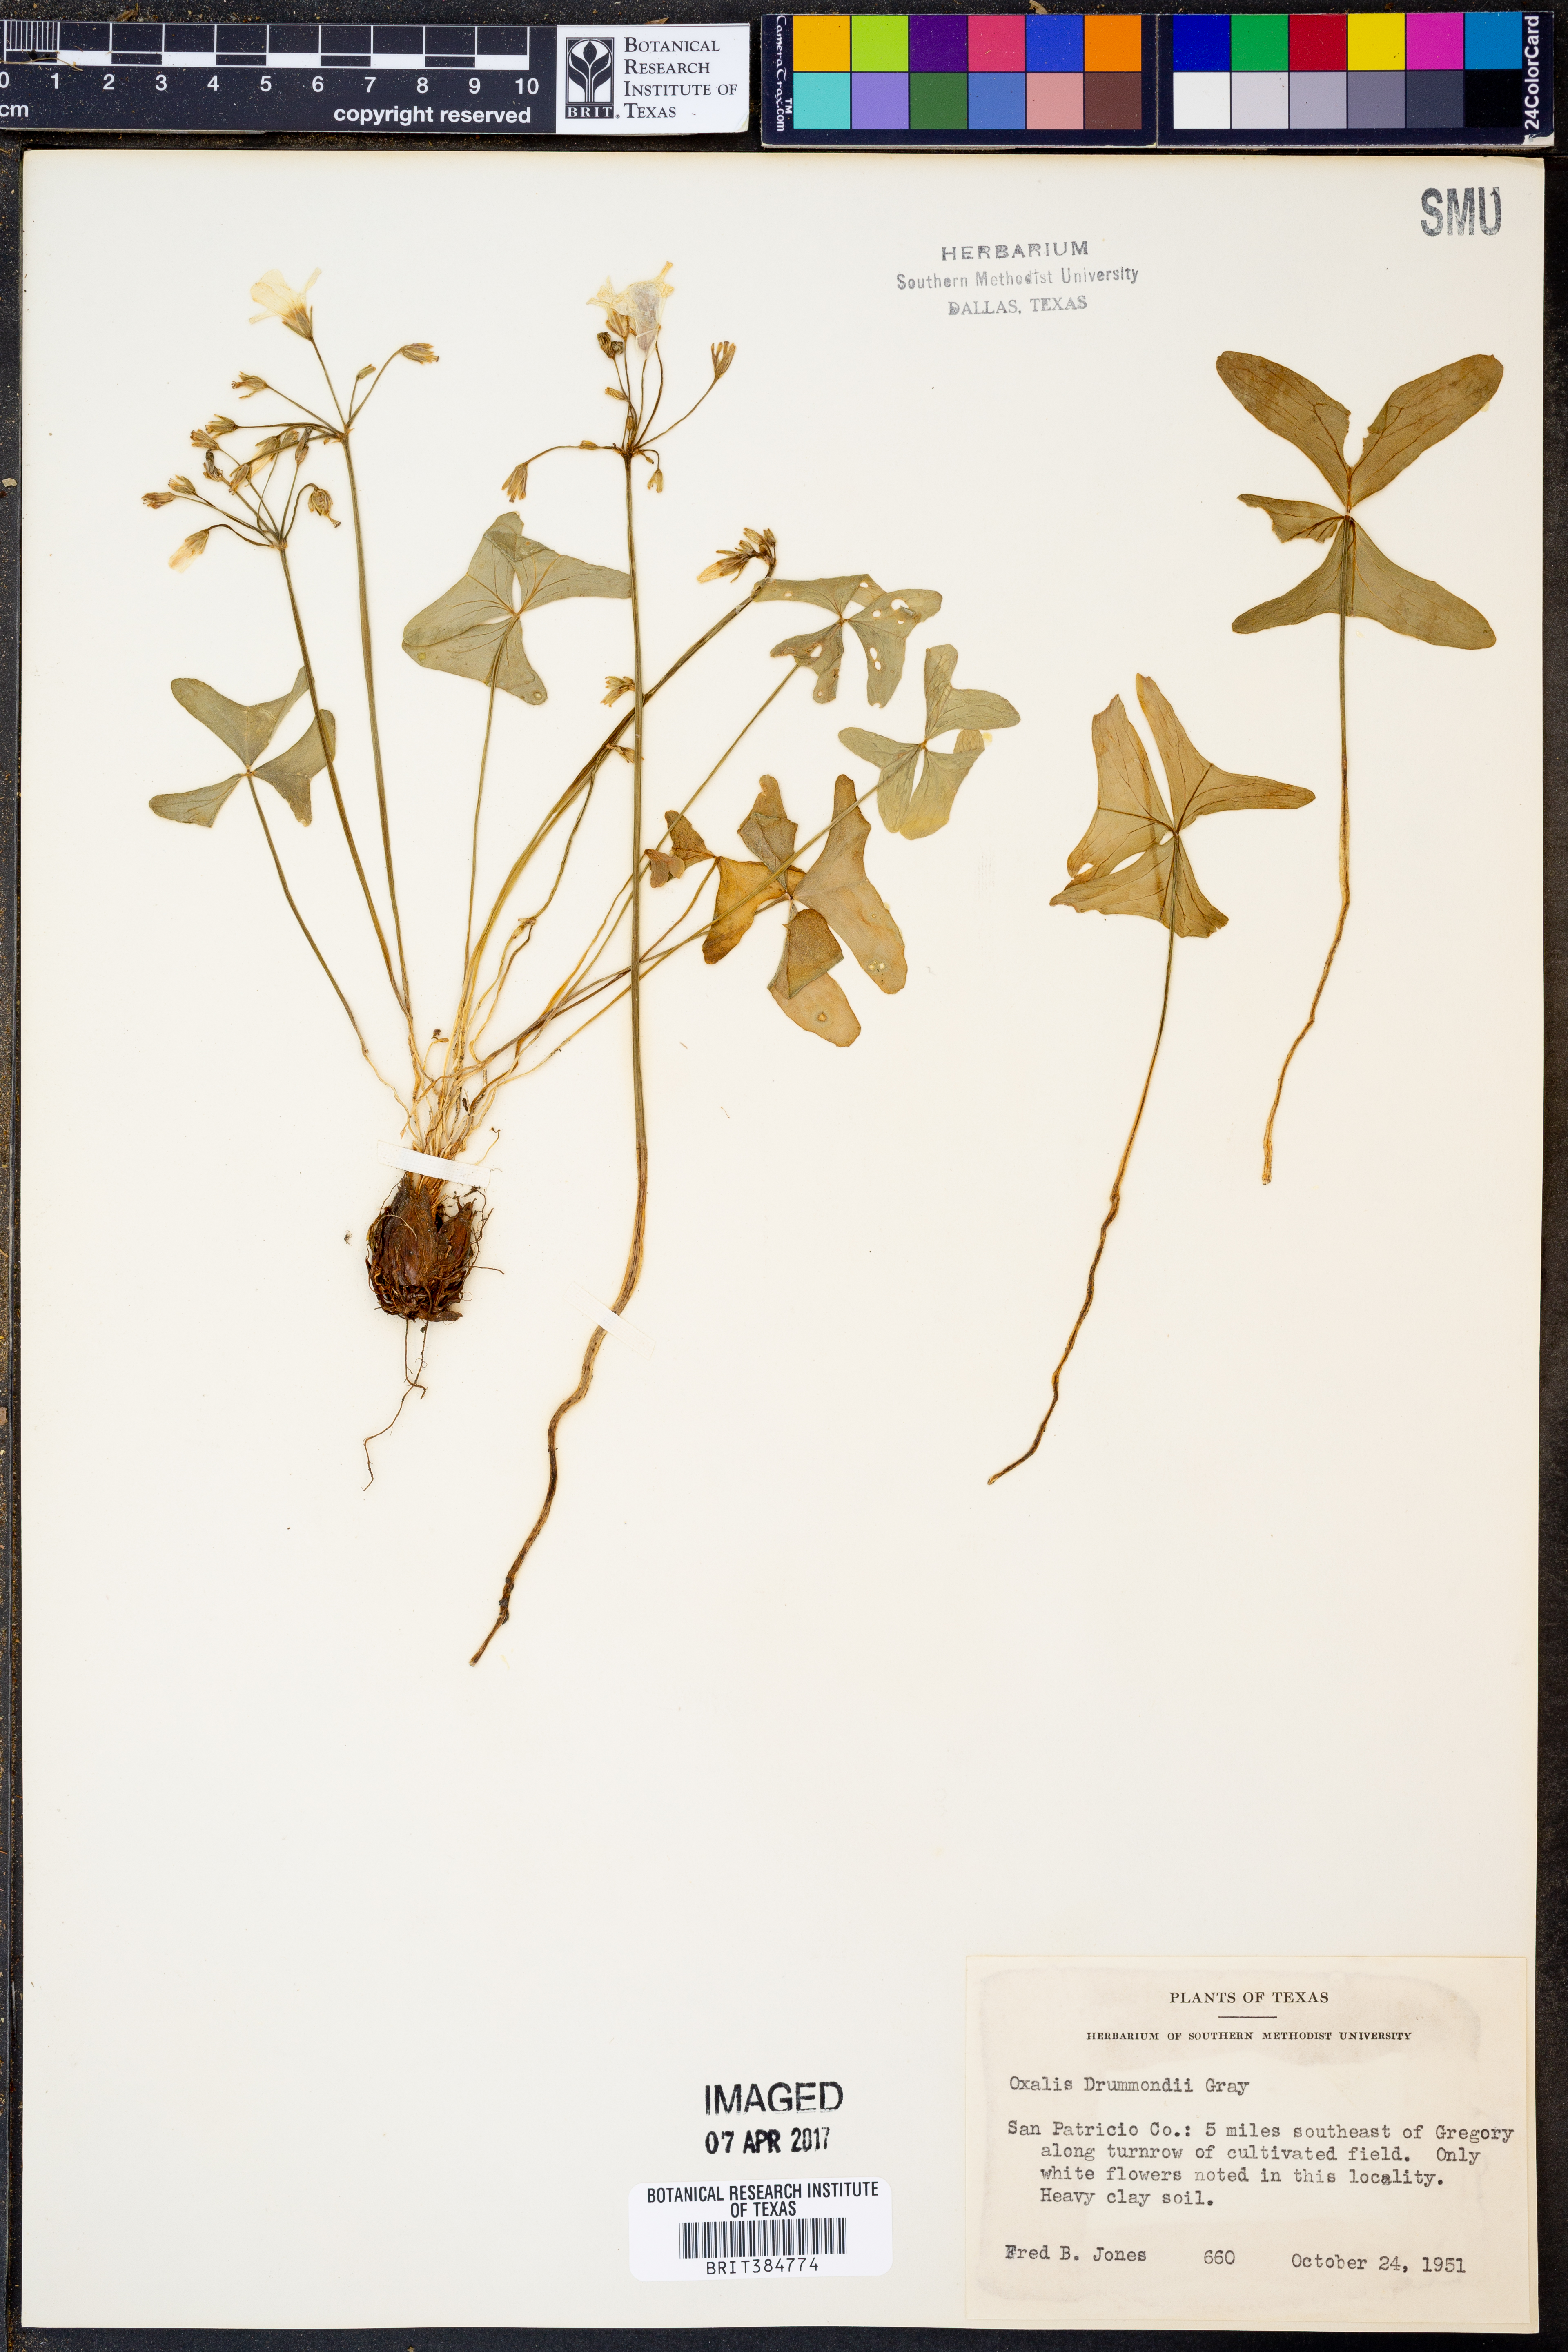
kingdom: Plantae
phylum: Tracheophyta
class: Magnoliopsida
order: Oxalidales
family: Oxalidaceae
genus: Oxalis
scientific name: Oxalis drummondii
